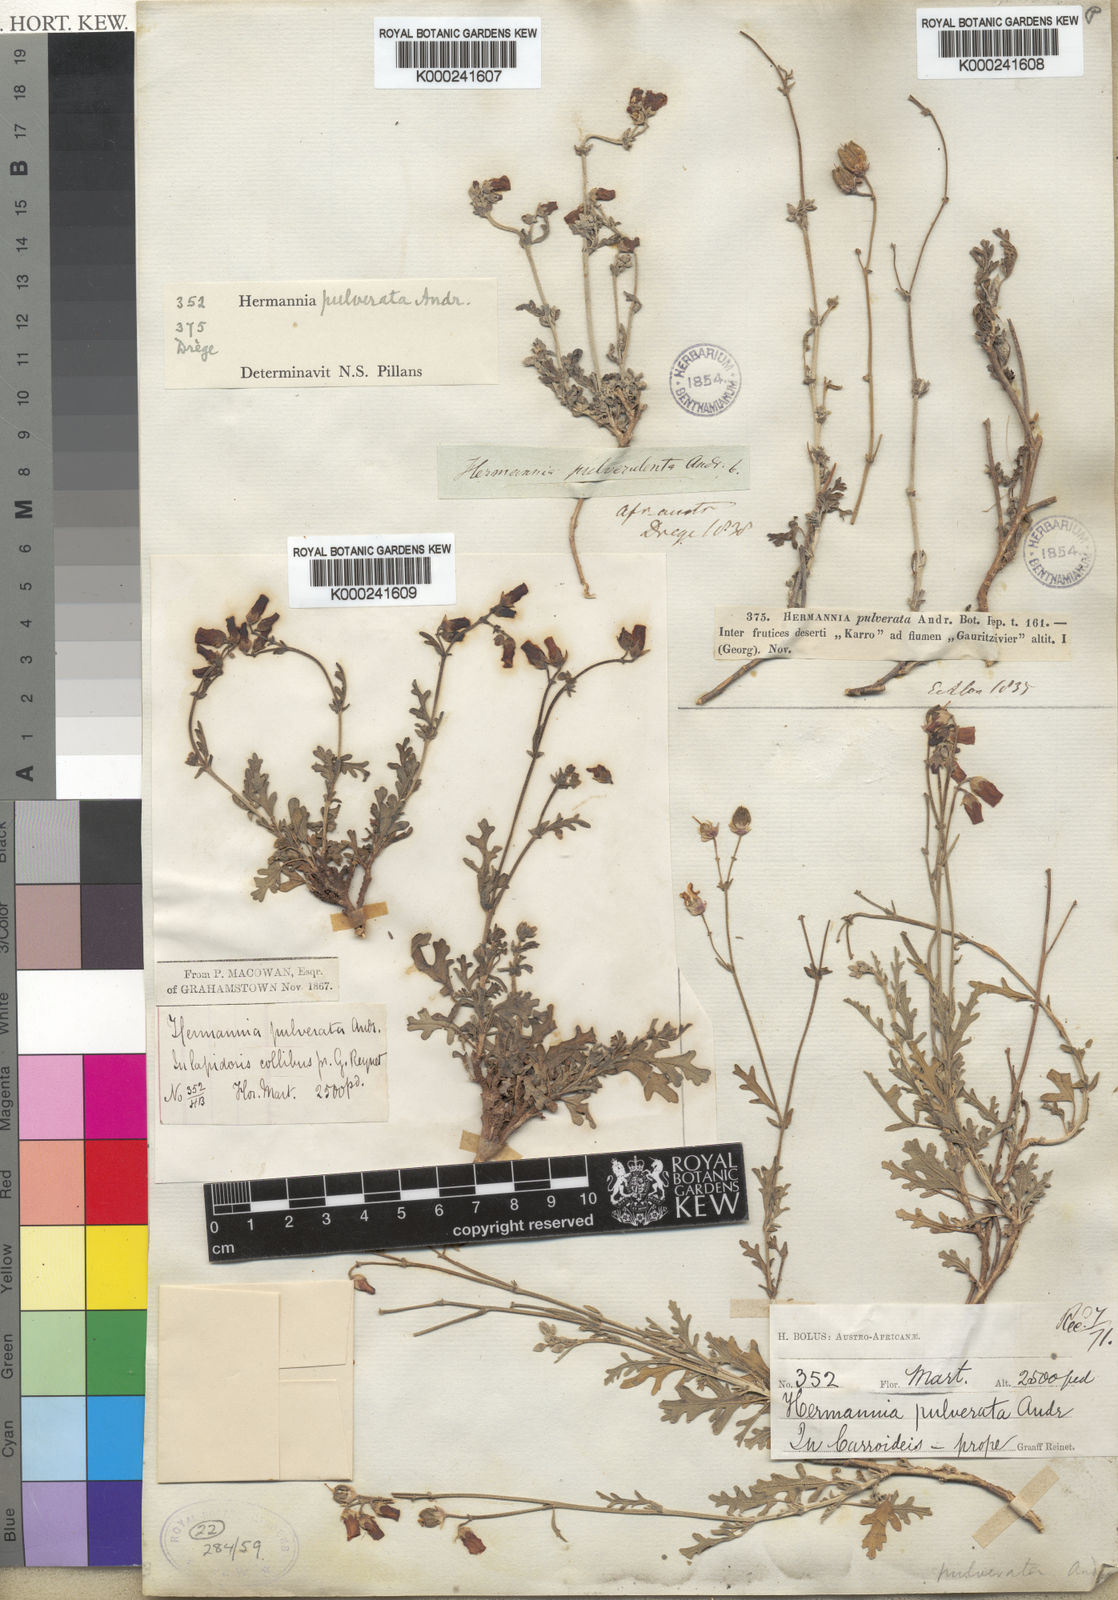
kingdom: Plantae
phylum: Tracheophyta
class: Magnoliopsida
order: Malvales
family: Malvaceae
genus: Hermannia
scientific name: Hermannia pulverata
